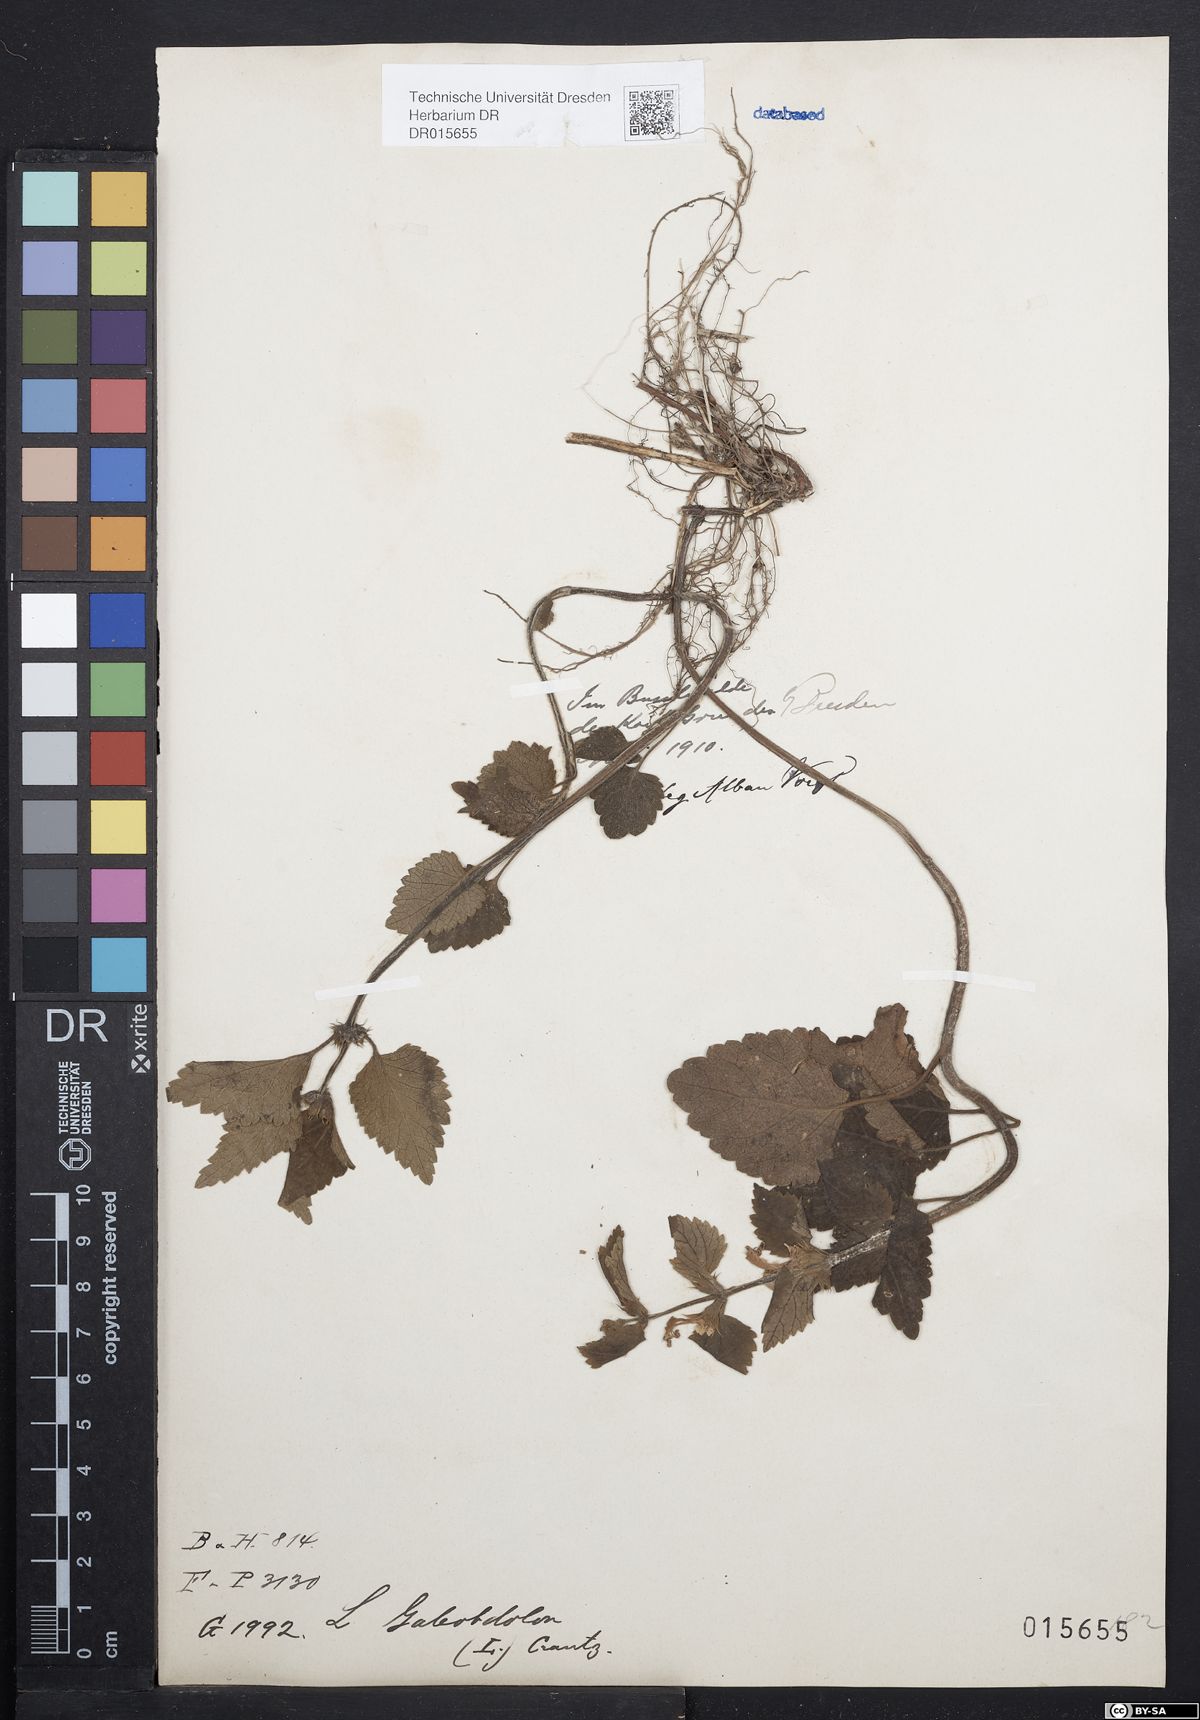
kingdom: Plantae
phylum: Tracheophyta
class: Magnoliopsida
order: Lamiales
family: Lamiaceae
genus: Lamium
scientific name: Lamium galeobdolon
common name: Yellow archangel
